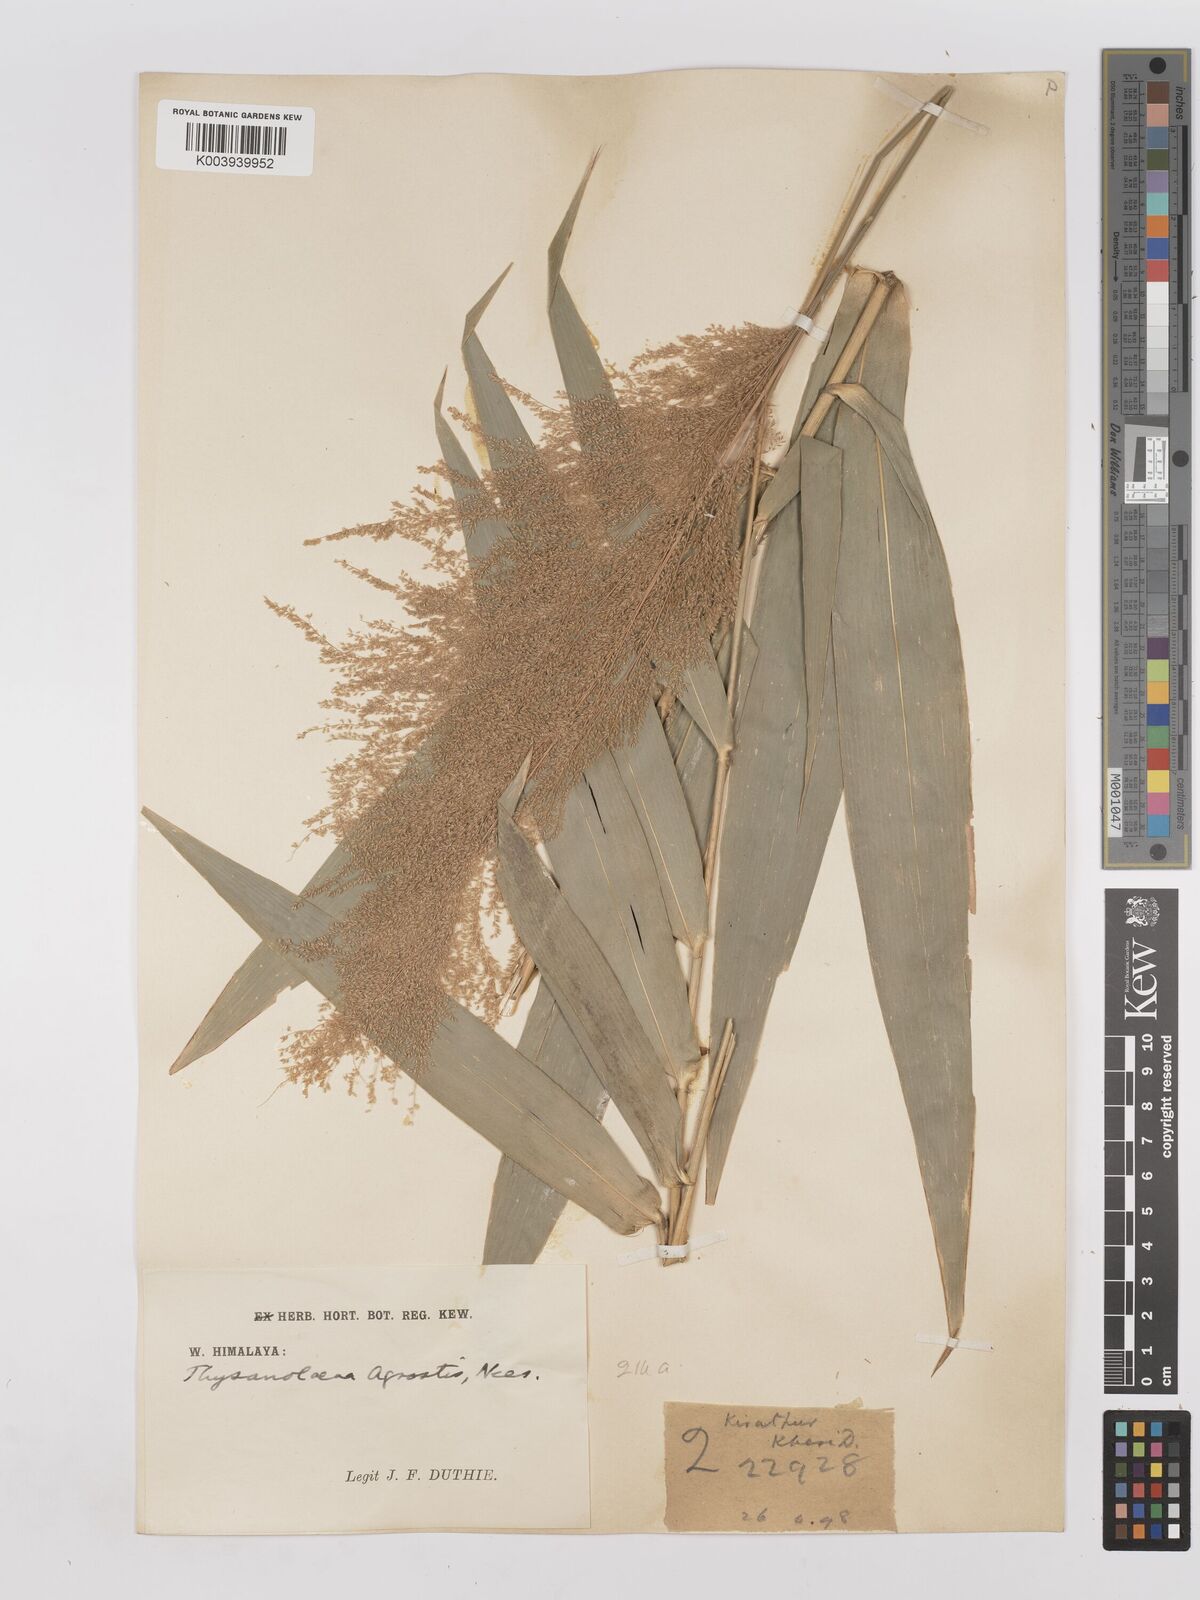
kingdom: Plantae
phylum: Tracheophyta
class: Liliopsida
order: Poales
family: Poaceae
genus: Thysanolaena
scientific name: Thysanolaena latifolia
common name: Tiger grass
